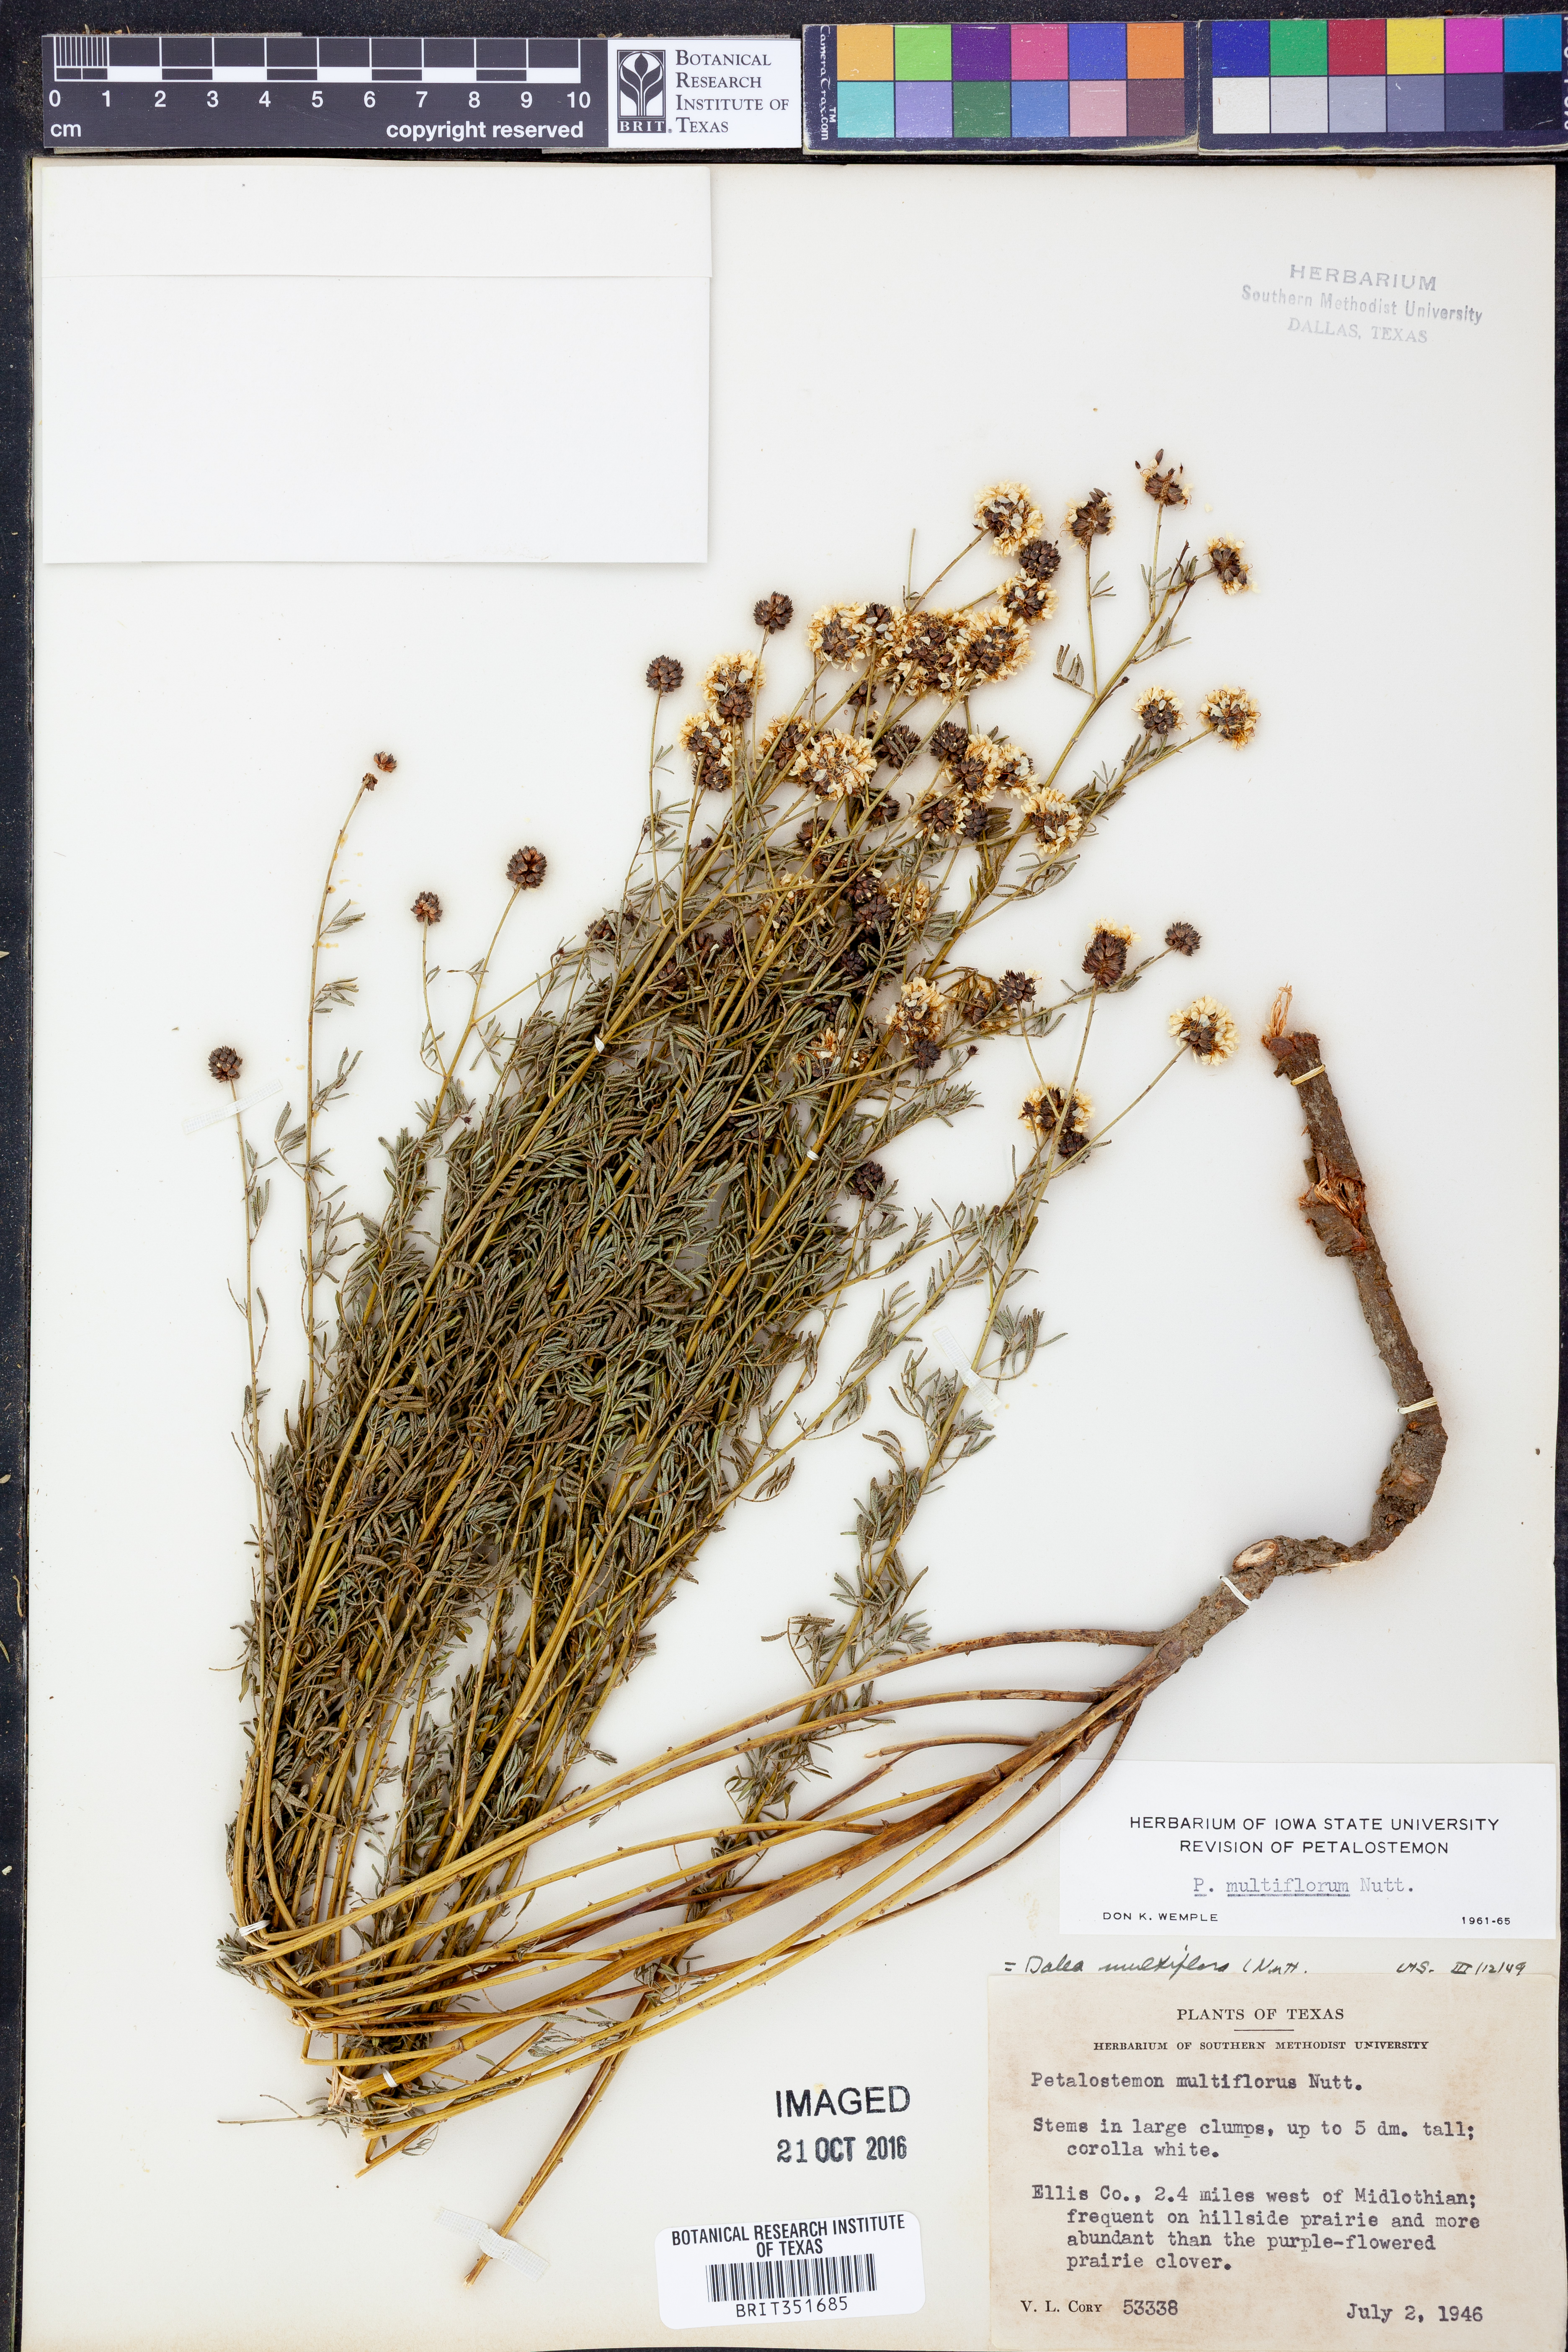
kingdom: Plantae
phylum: Tracheophyta
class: Magnoliopsida
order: Fabales
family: Fabaceae
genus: Dalea
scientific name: Dalea multiflora
